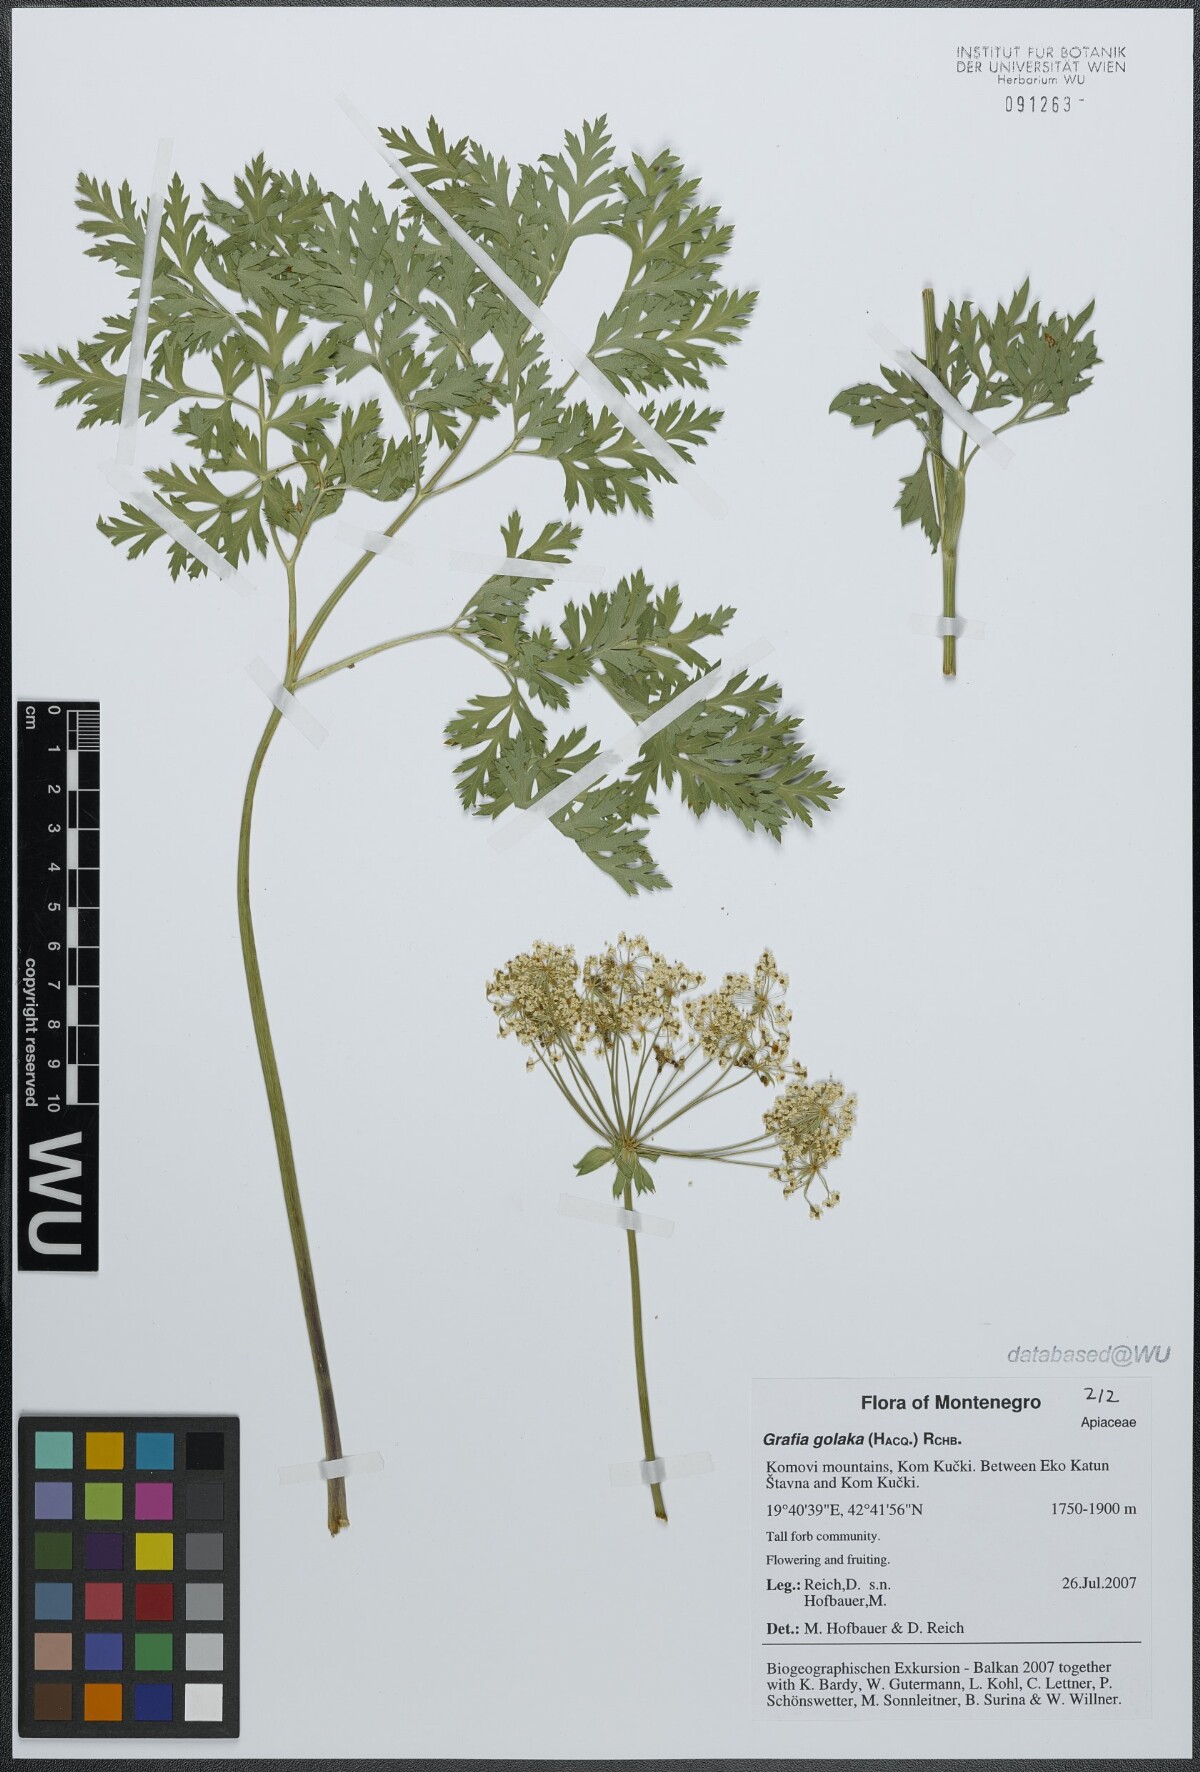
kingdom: Plantae
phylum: Tracheophyta
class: Magnoliopsida
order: Apiales
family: Apiaceae
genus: Grafia
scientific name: Grafia golaka
